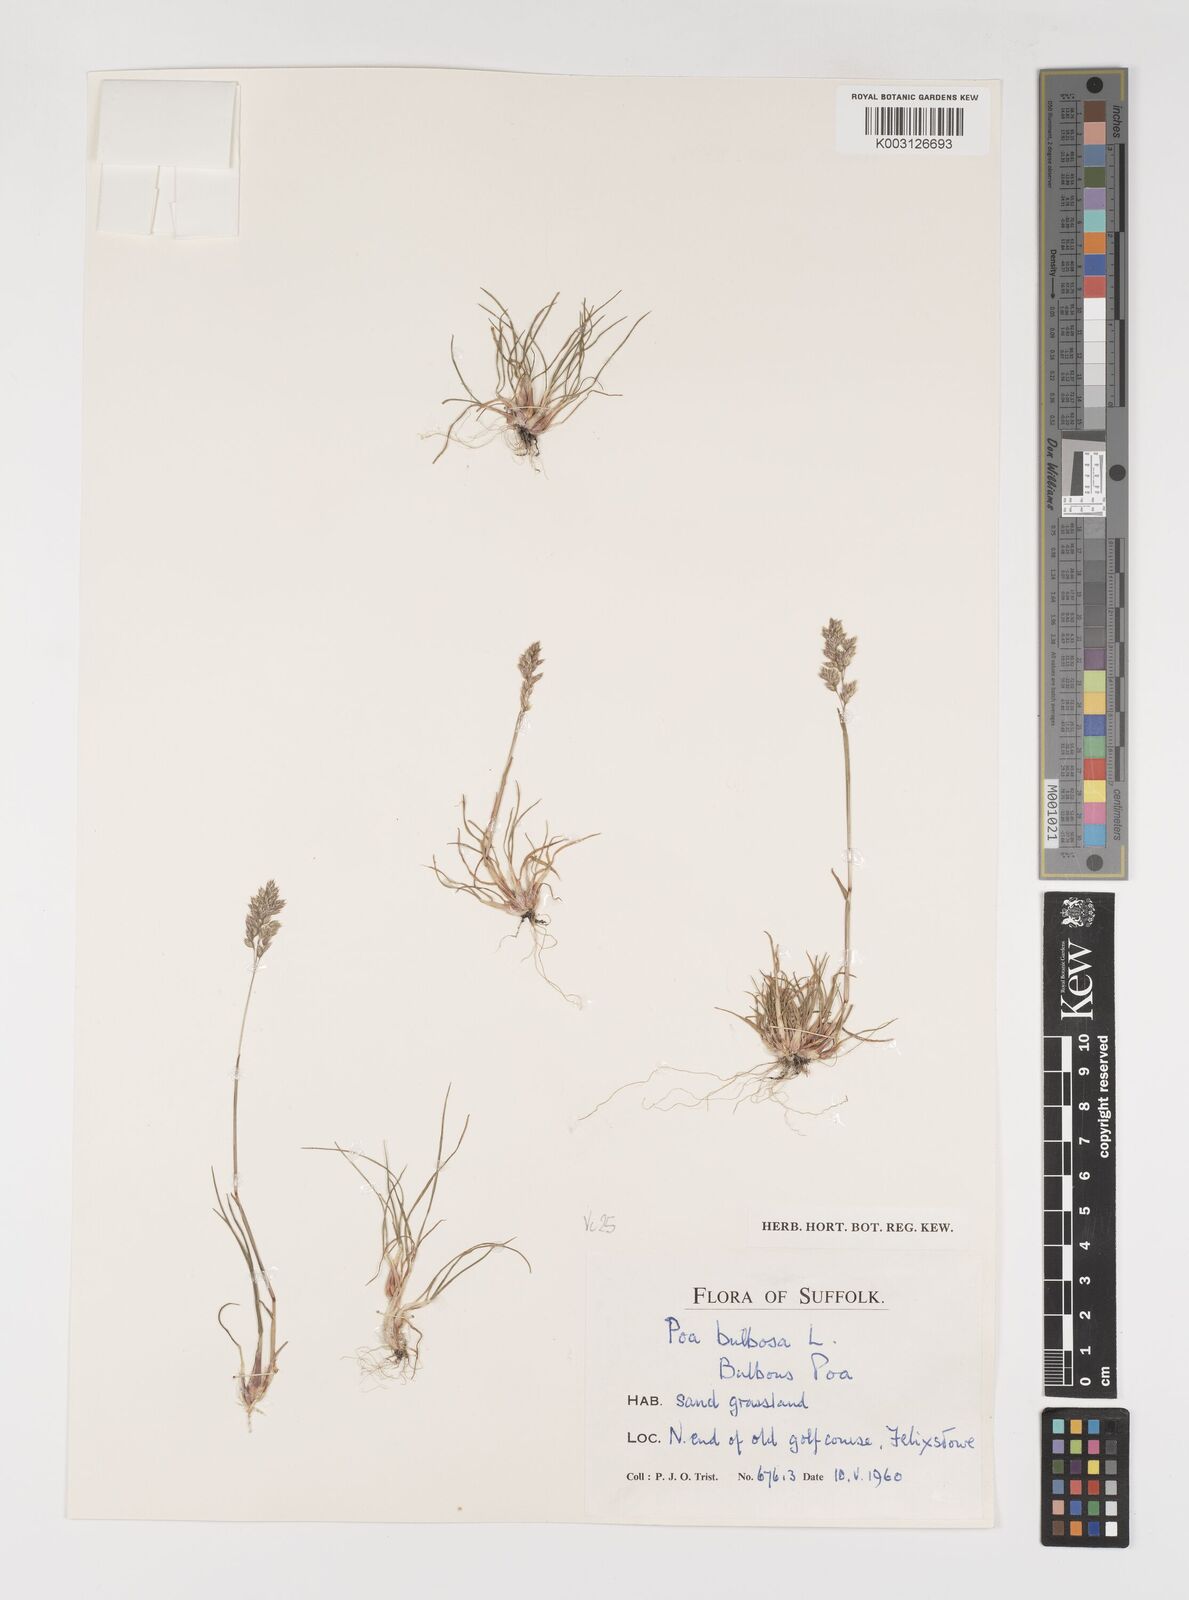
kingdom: Plantae
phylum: Tracheophyta
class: Liliopsida
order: Poales
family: Poaceae
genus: Poa
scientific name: Poa bulbosa
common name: Bulbous bluegrass
